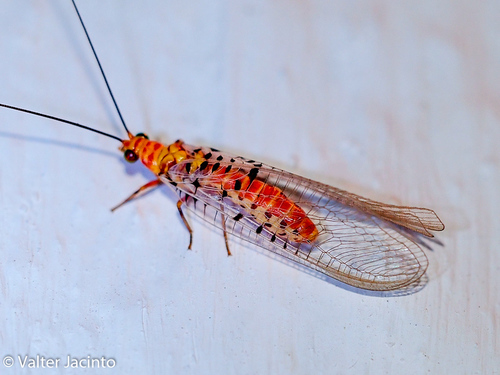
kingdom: Animalia
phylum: Arthropoda
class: Insecta
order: Neuroptera
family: Chrysopidae
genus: Italochrysa
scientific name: Italochrysa stigmatica
